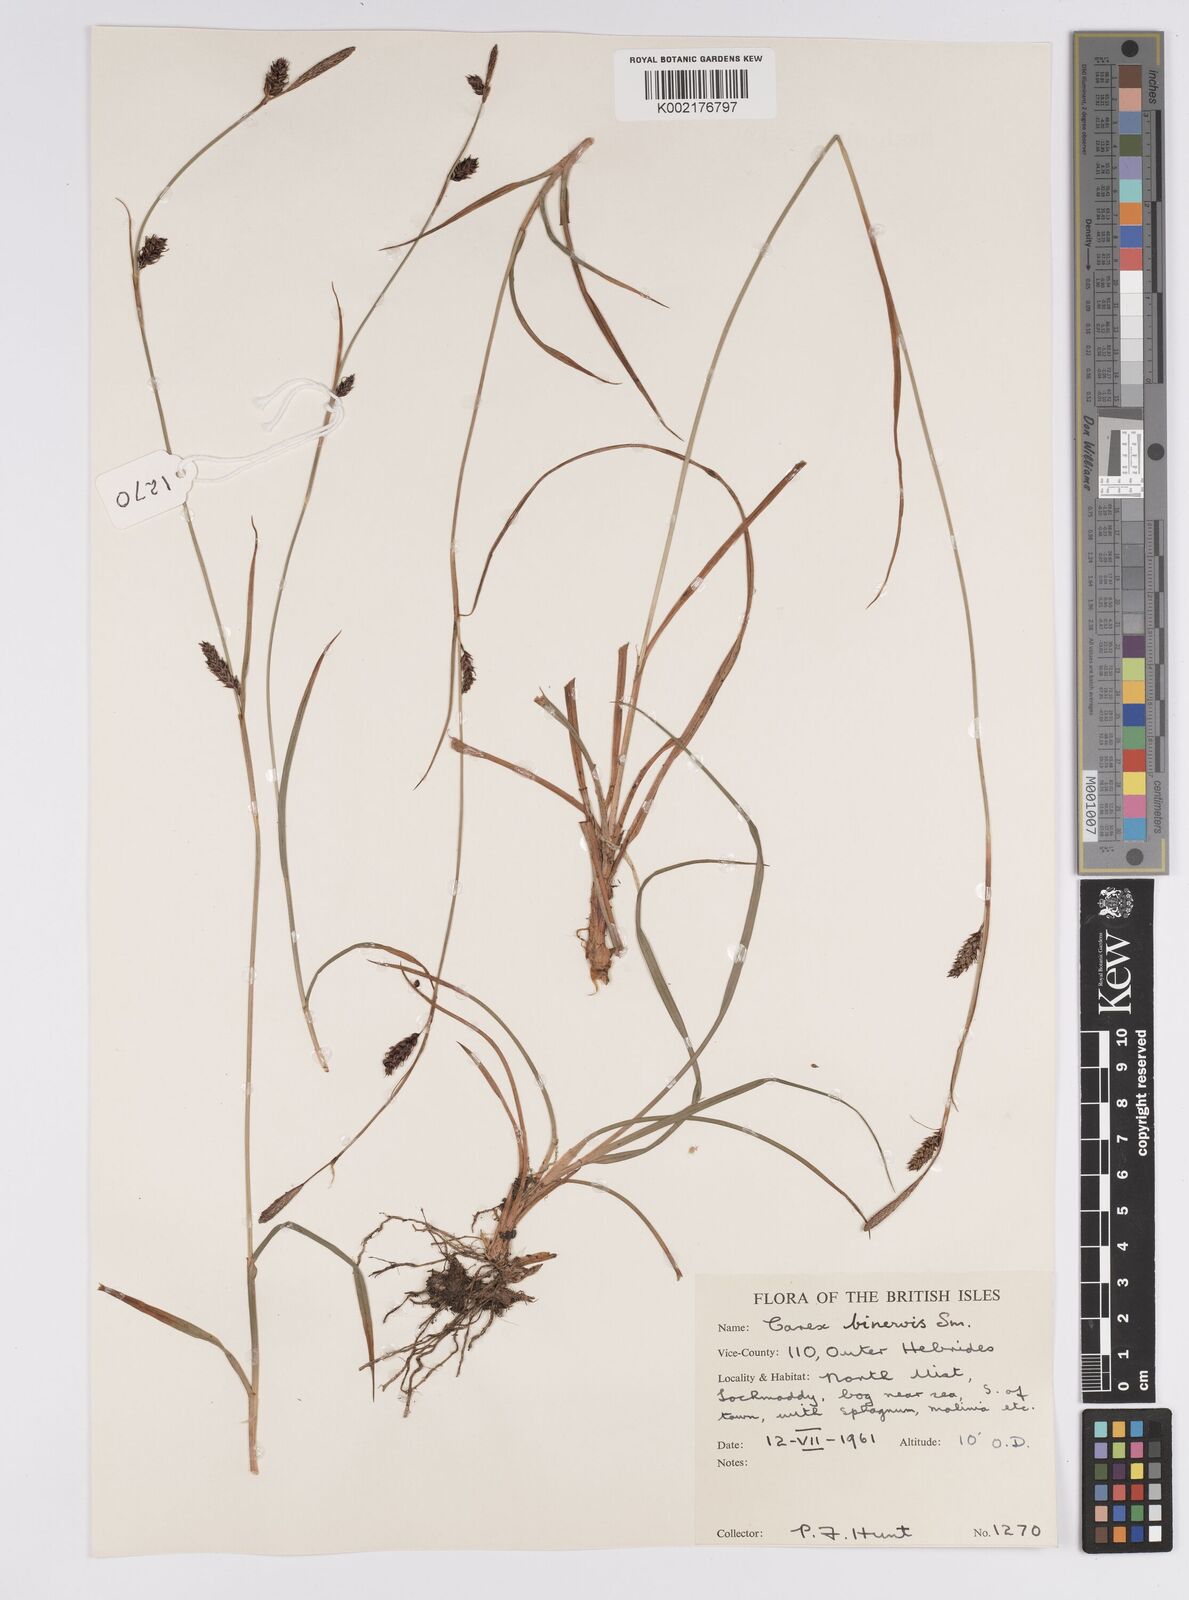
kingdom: Plantae
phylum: Tracheophyta
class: Liliopsida
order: Poales
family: Cyperaceae
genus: Carex
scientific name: Carex binervis
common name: Green-ribbed sedge
